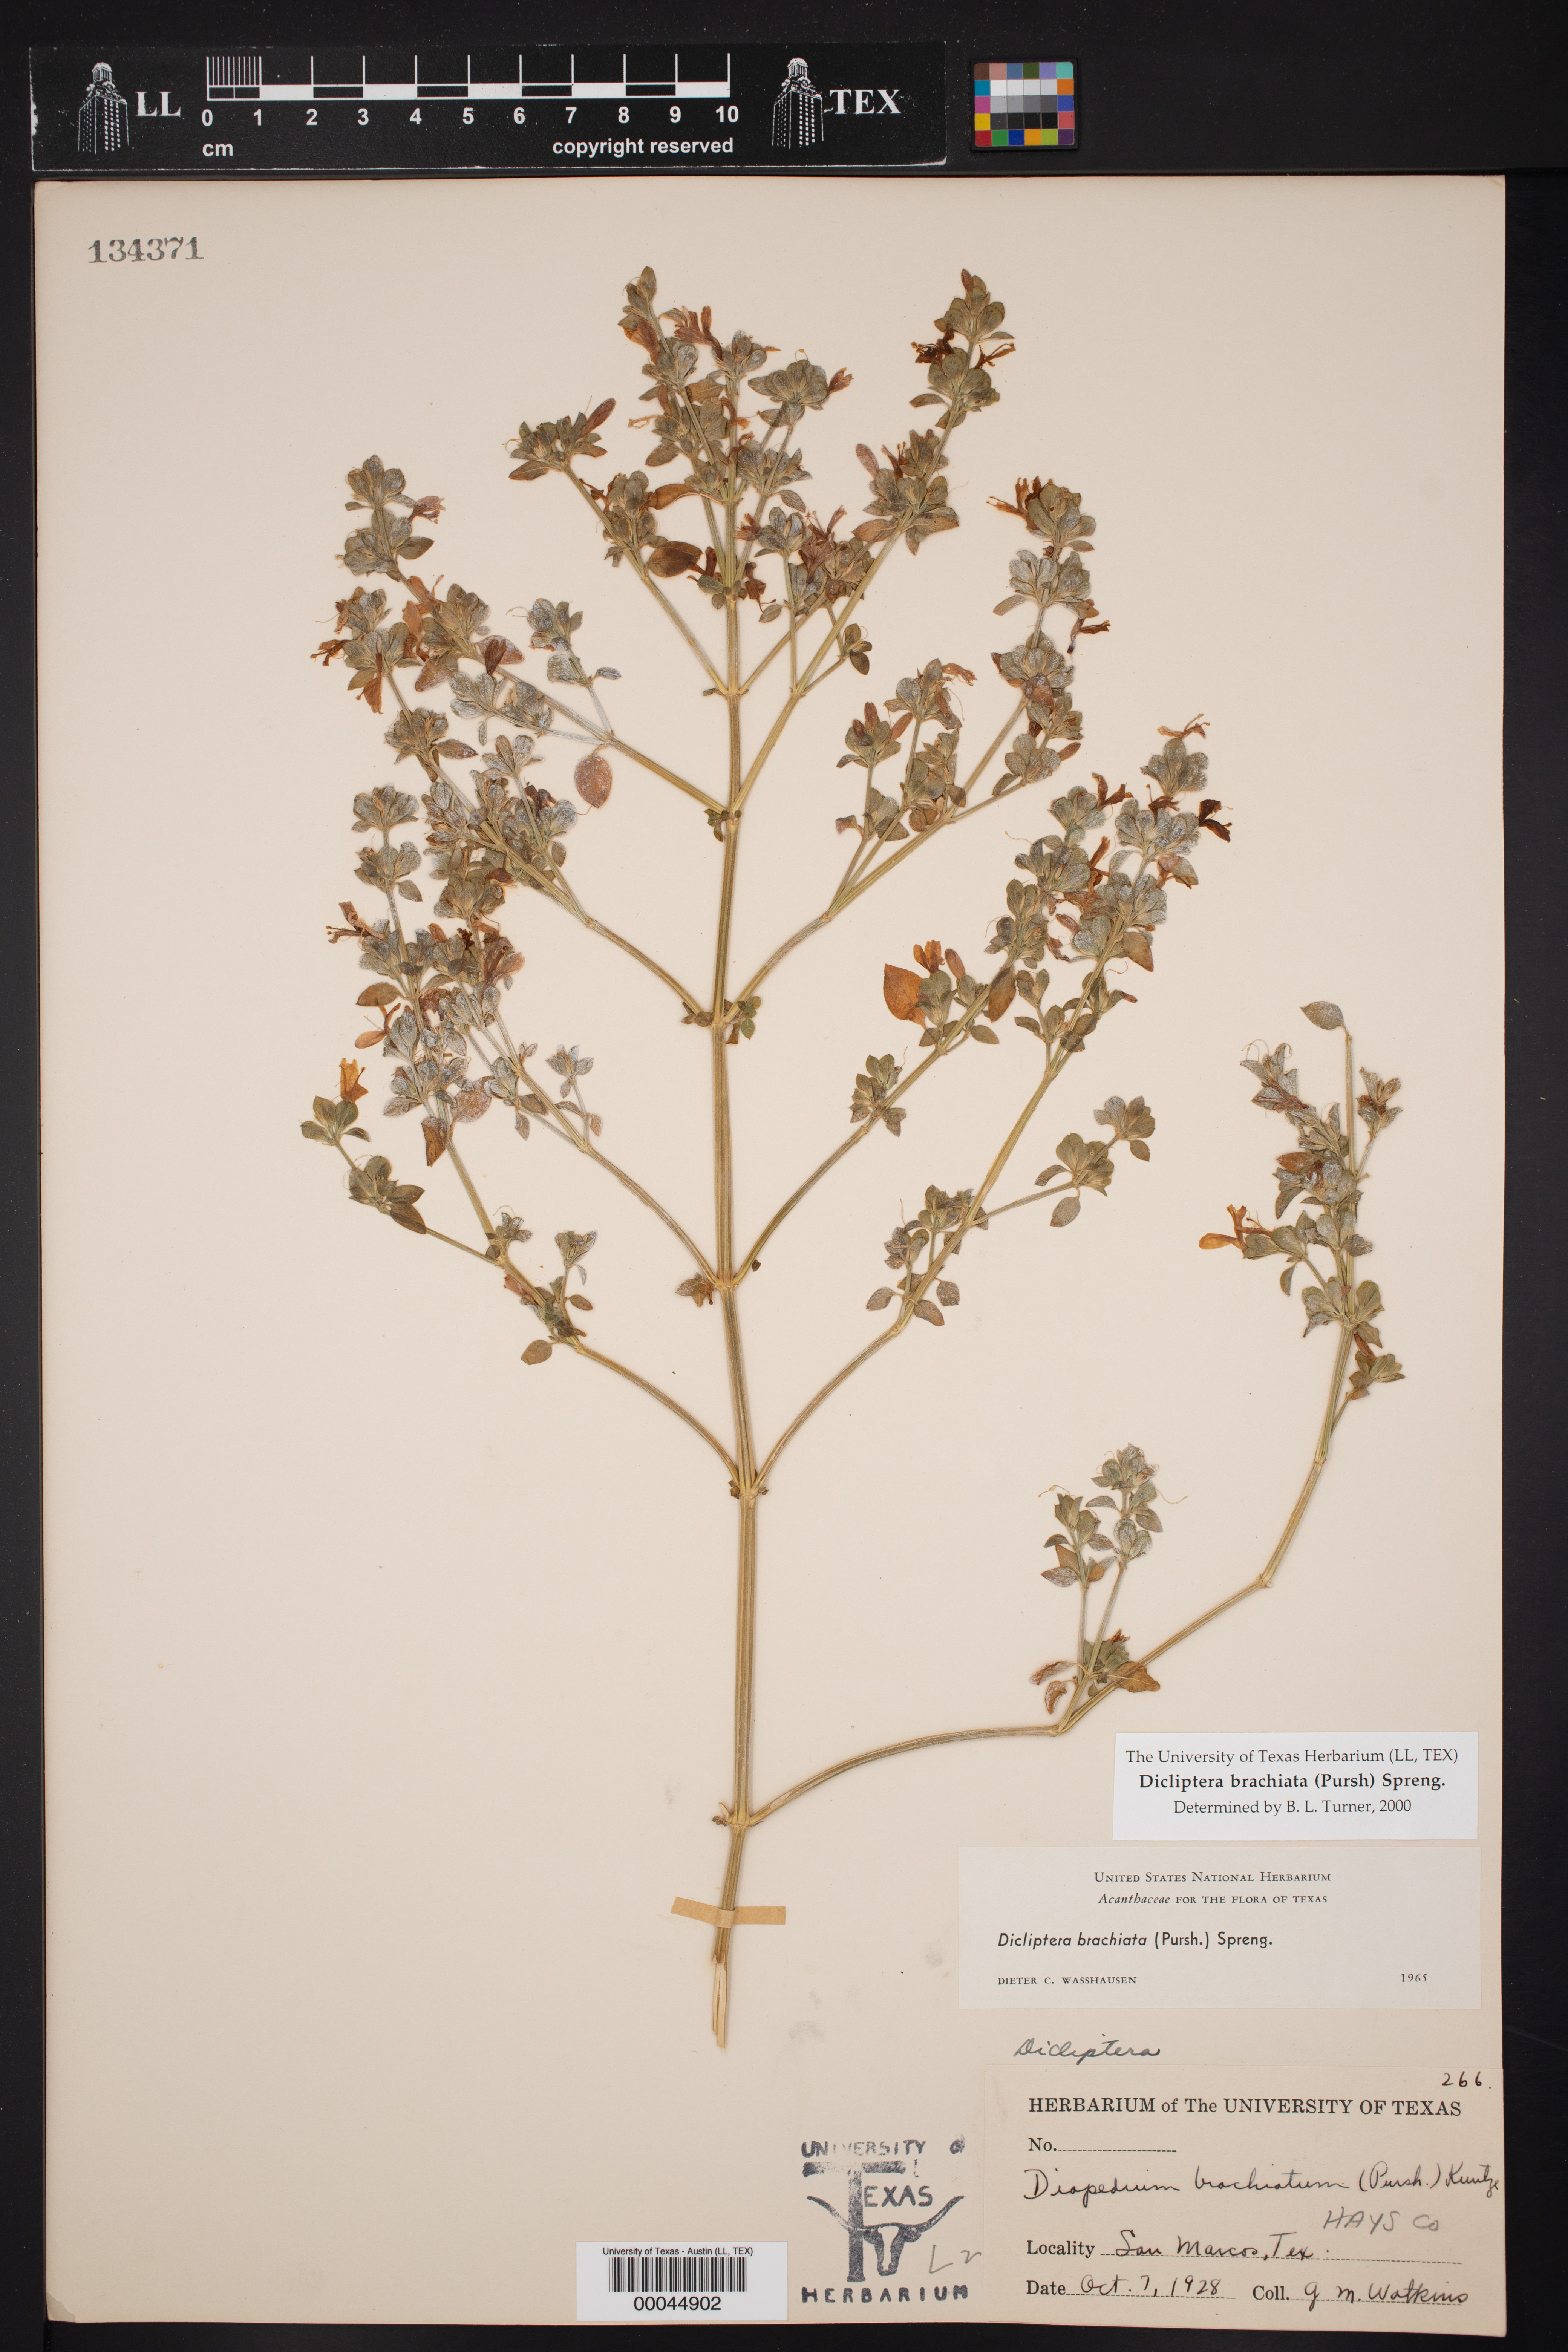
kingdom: Plantae
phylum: Tracheophyta
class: Magnoliopsida
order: Lamiales
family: Acanthaceae
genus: Dicliptera
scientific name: Dicliptera brachiata
